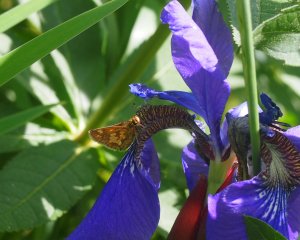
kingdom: Animalia
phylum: Arthropoda
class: Insecta
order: Lepidoptera
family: Hesperiidae
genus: Polites
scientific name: Polites coras
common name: Peck's Skipper
